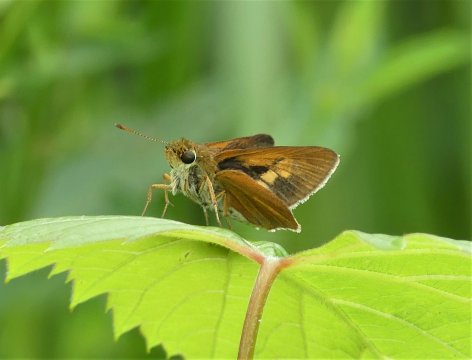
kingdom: Animalia
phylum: Arthropoda
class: Insecta
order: Lepidoptera
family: Hesperiidae
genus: Euphyes
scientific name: Euphyes dion
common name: Dion Skipper
